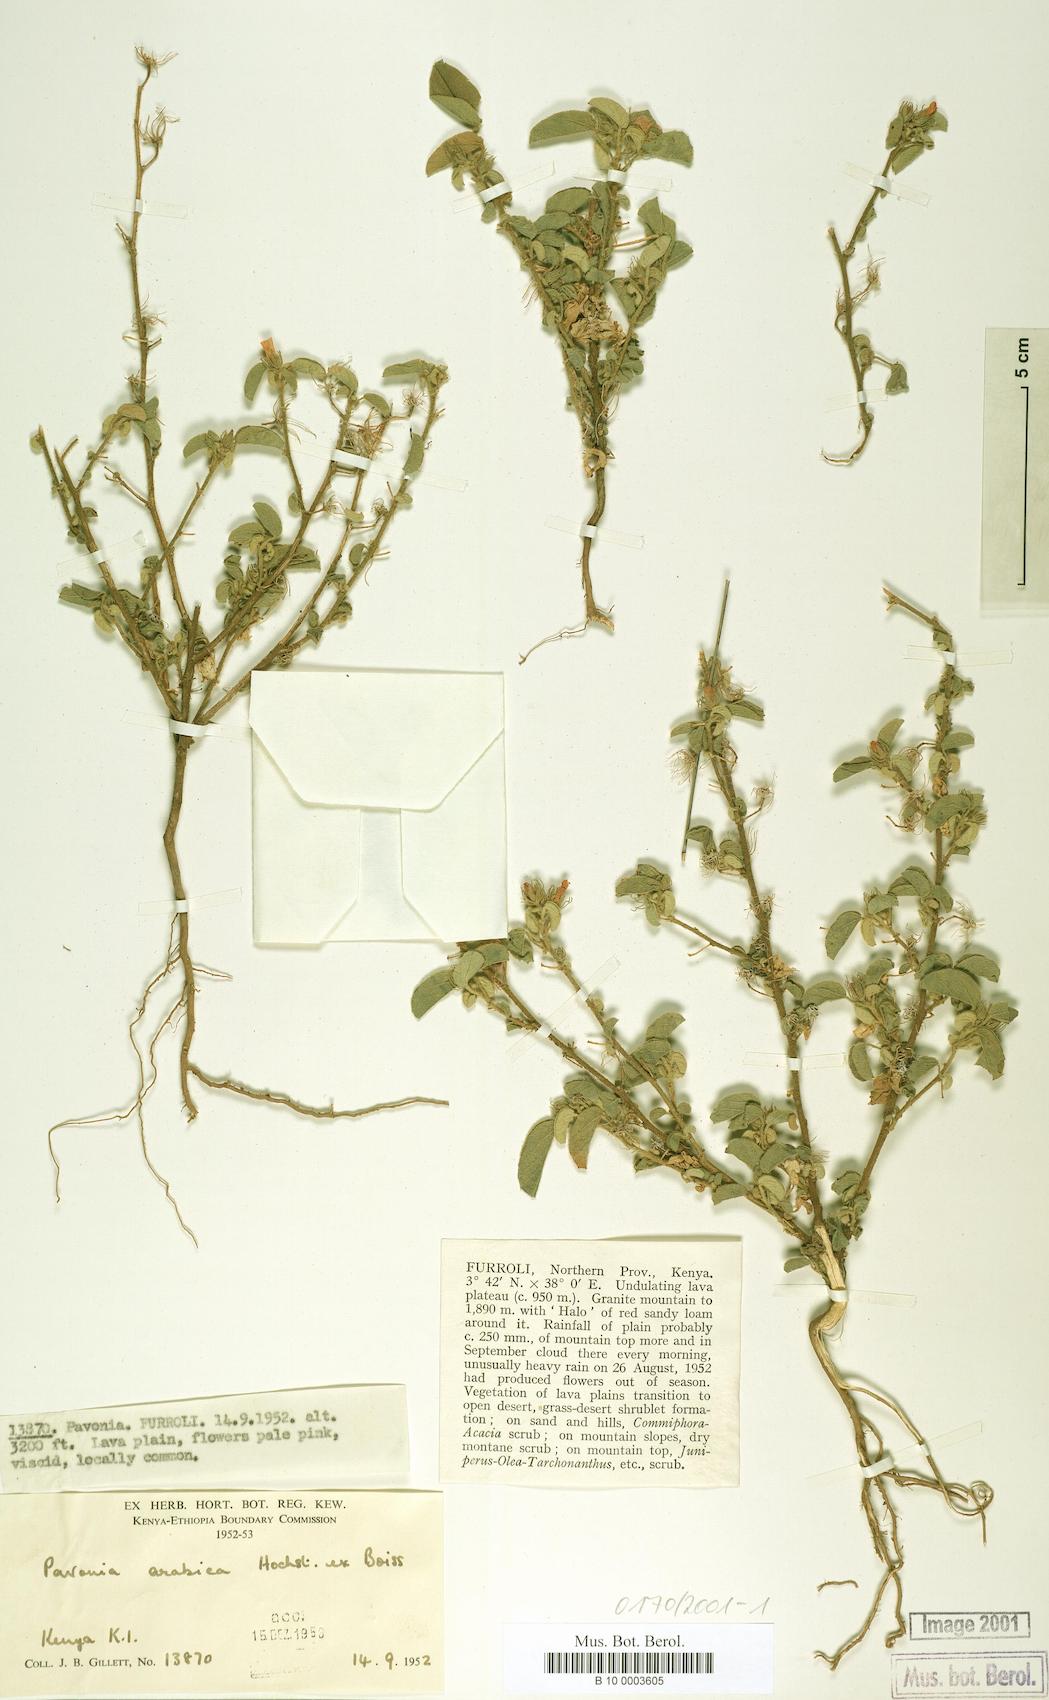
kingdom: Plantae
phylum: Tracheophyta
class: Magnoliopsida
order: Malvales
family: Malvaceae
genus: Pavonia
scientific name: Pavonia arabica
